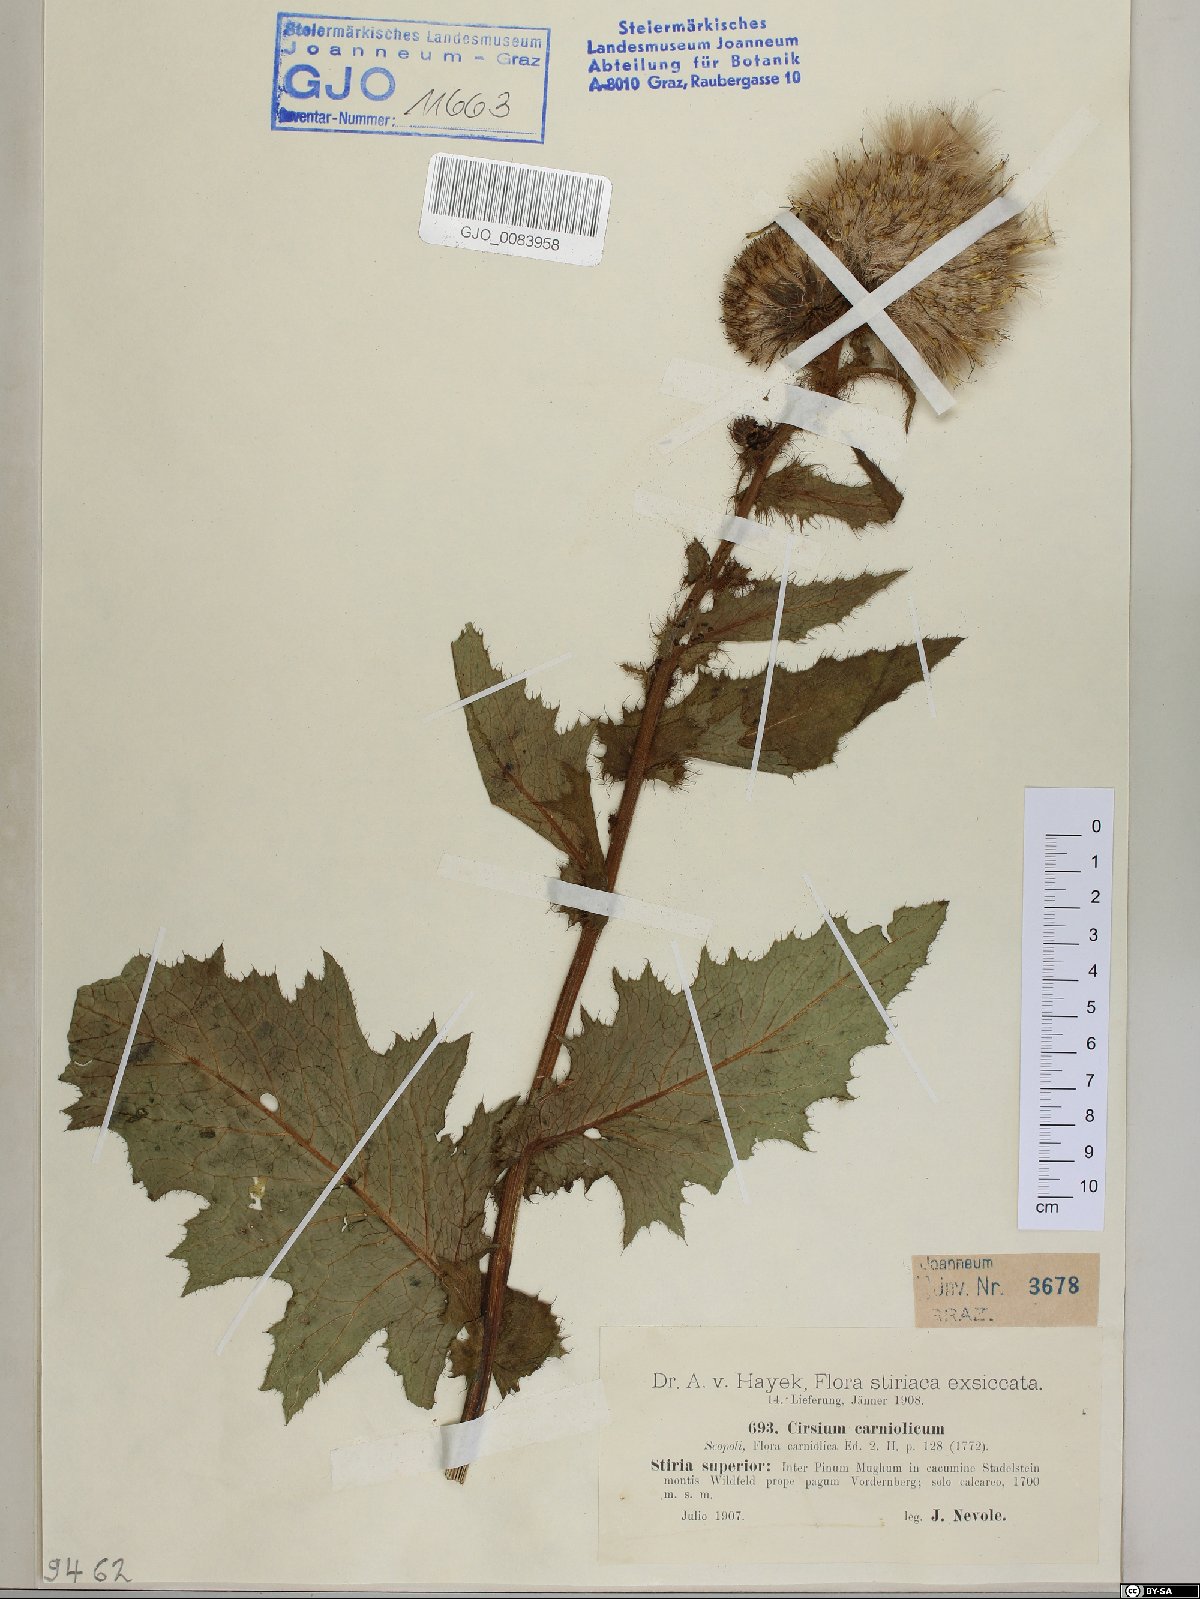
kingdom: Plantae
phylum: Tracheophyta
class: Magnoliopsida
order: Asterales
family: Asteraceae
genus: Cirsium
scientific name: Cirsium carniolicum
